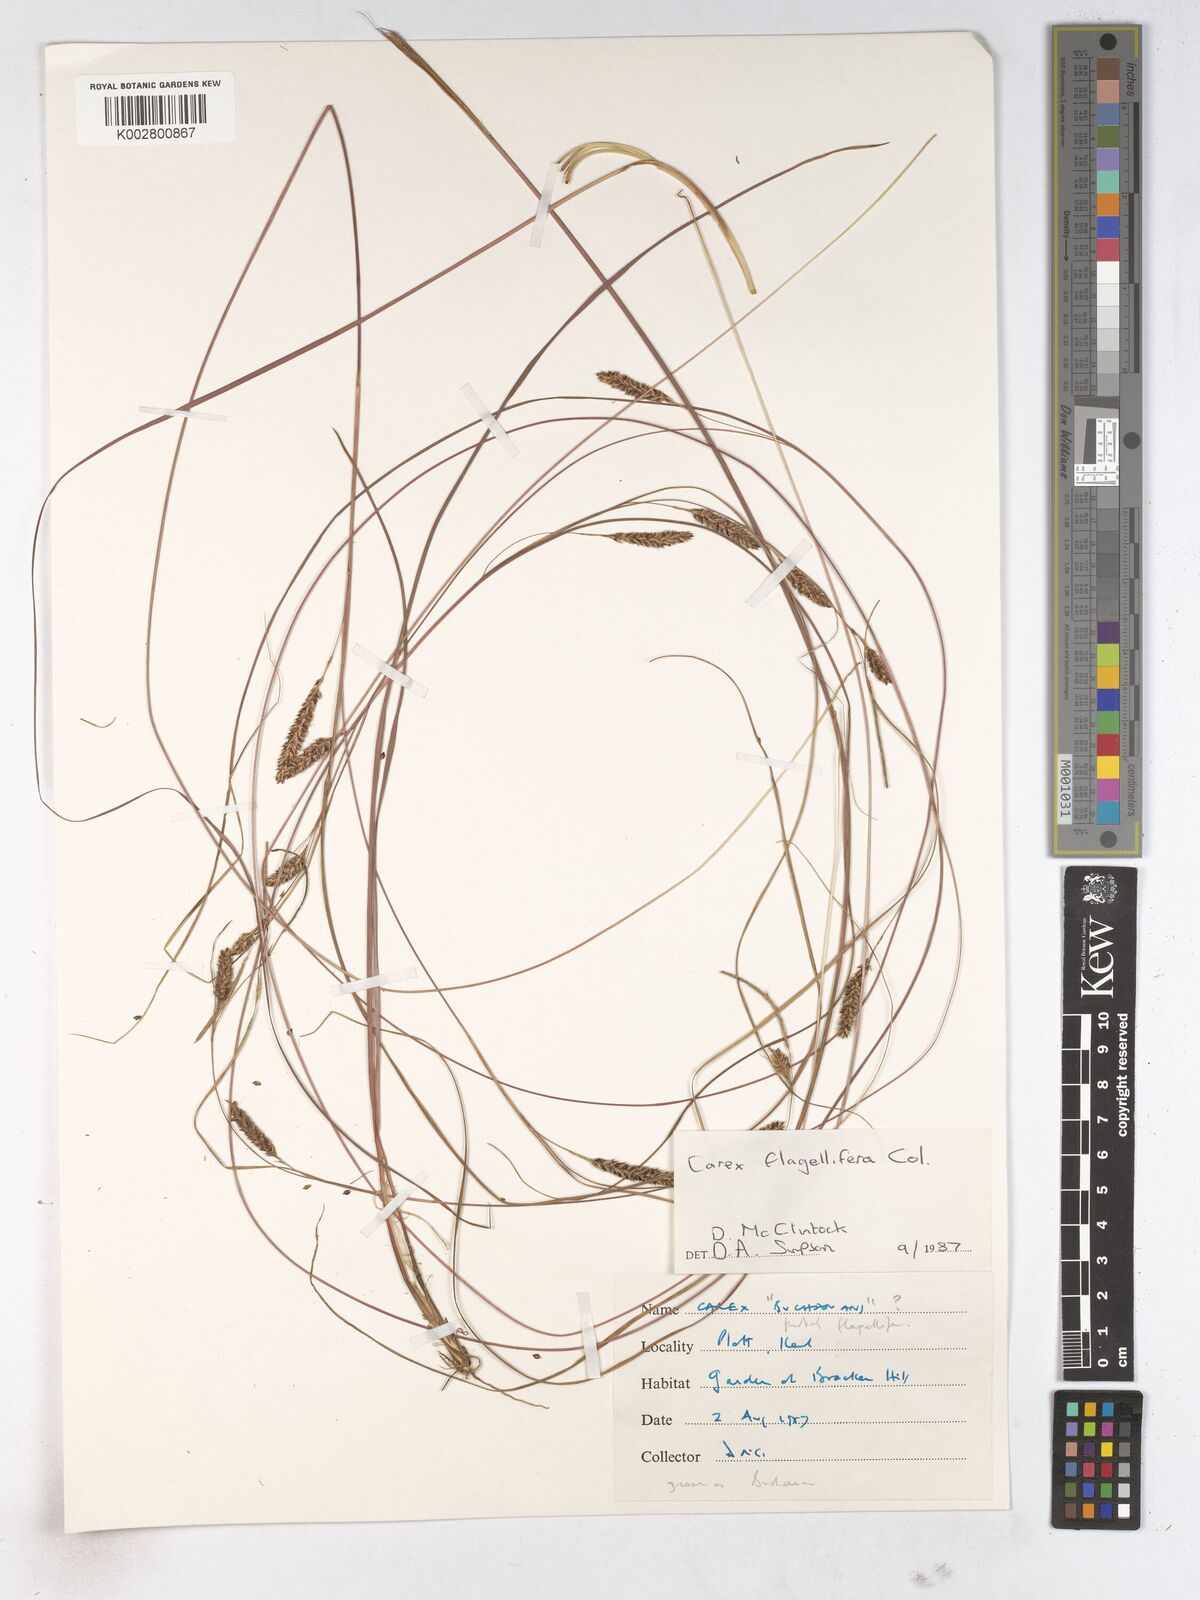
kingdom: Plantae
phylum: Tracheophyta
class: Liliopsida
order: Poales
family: Cyperaceae
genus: Carex
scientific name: Carex montana
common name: Soft-leaved sedge
